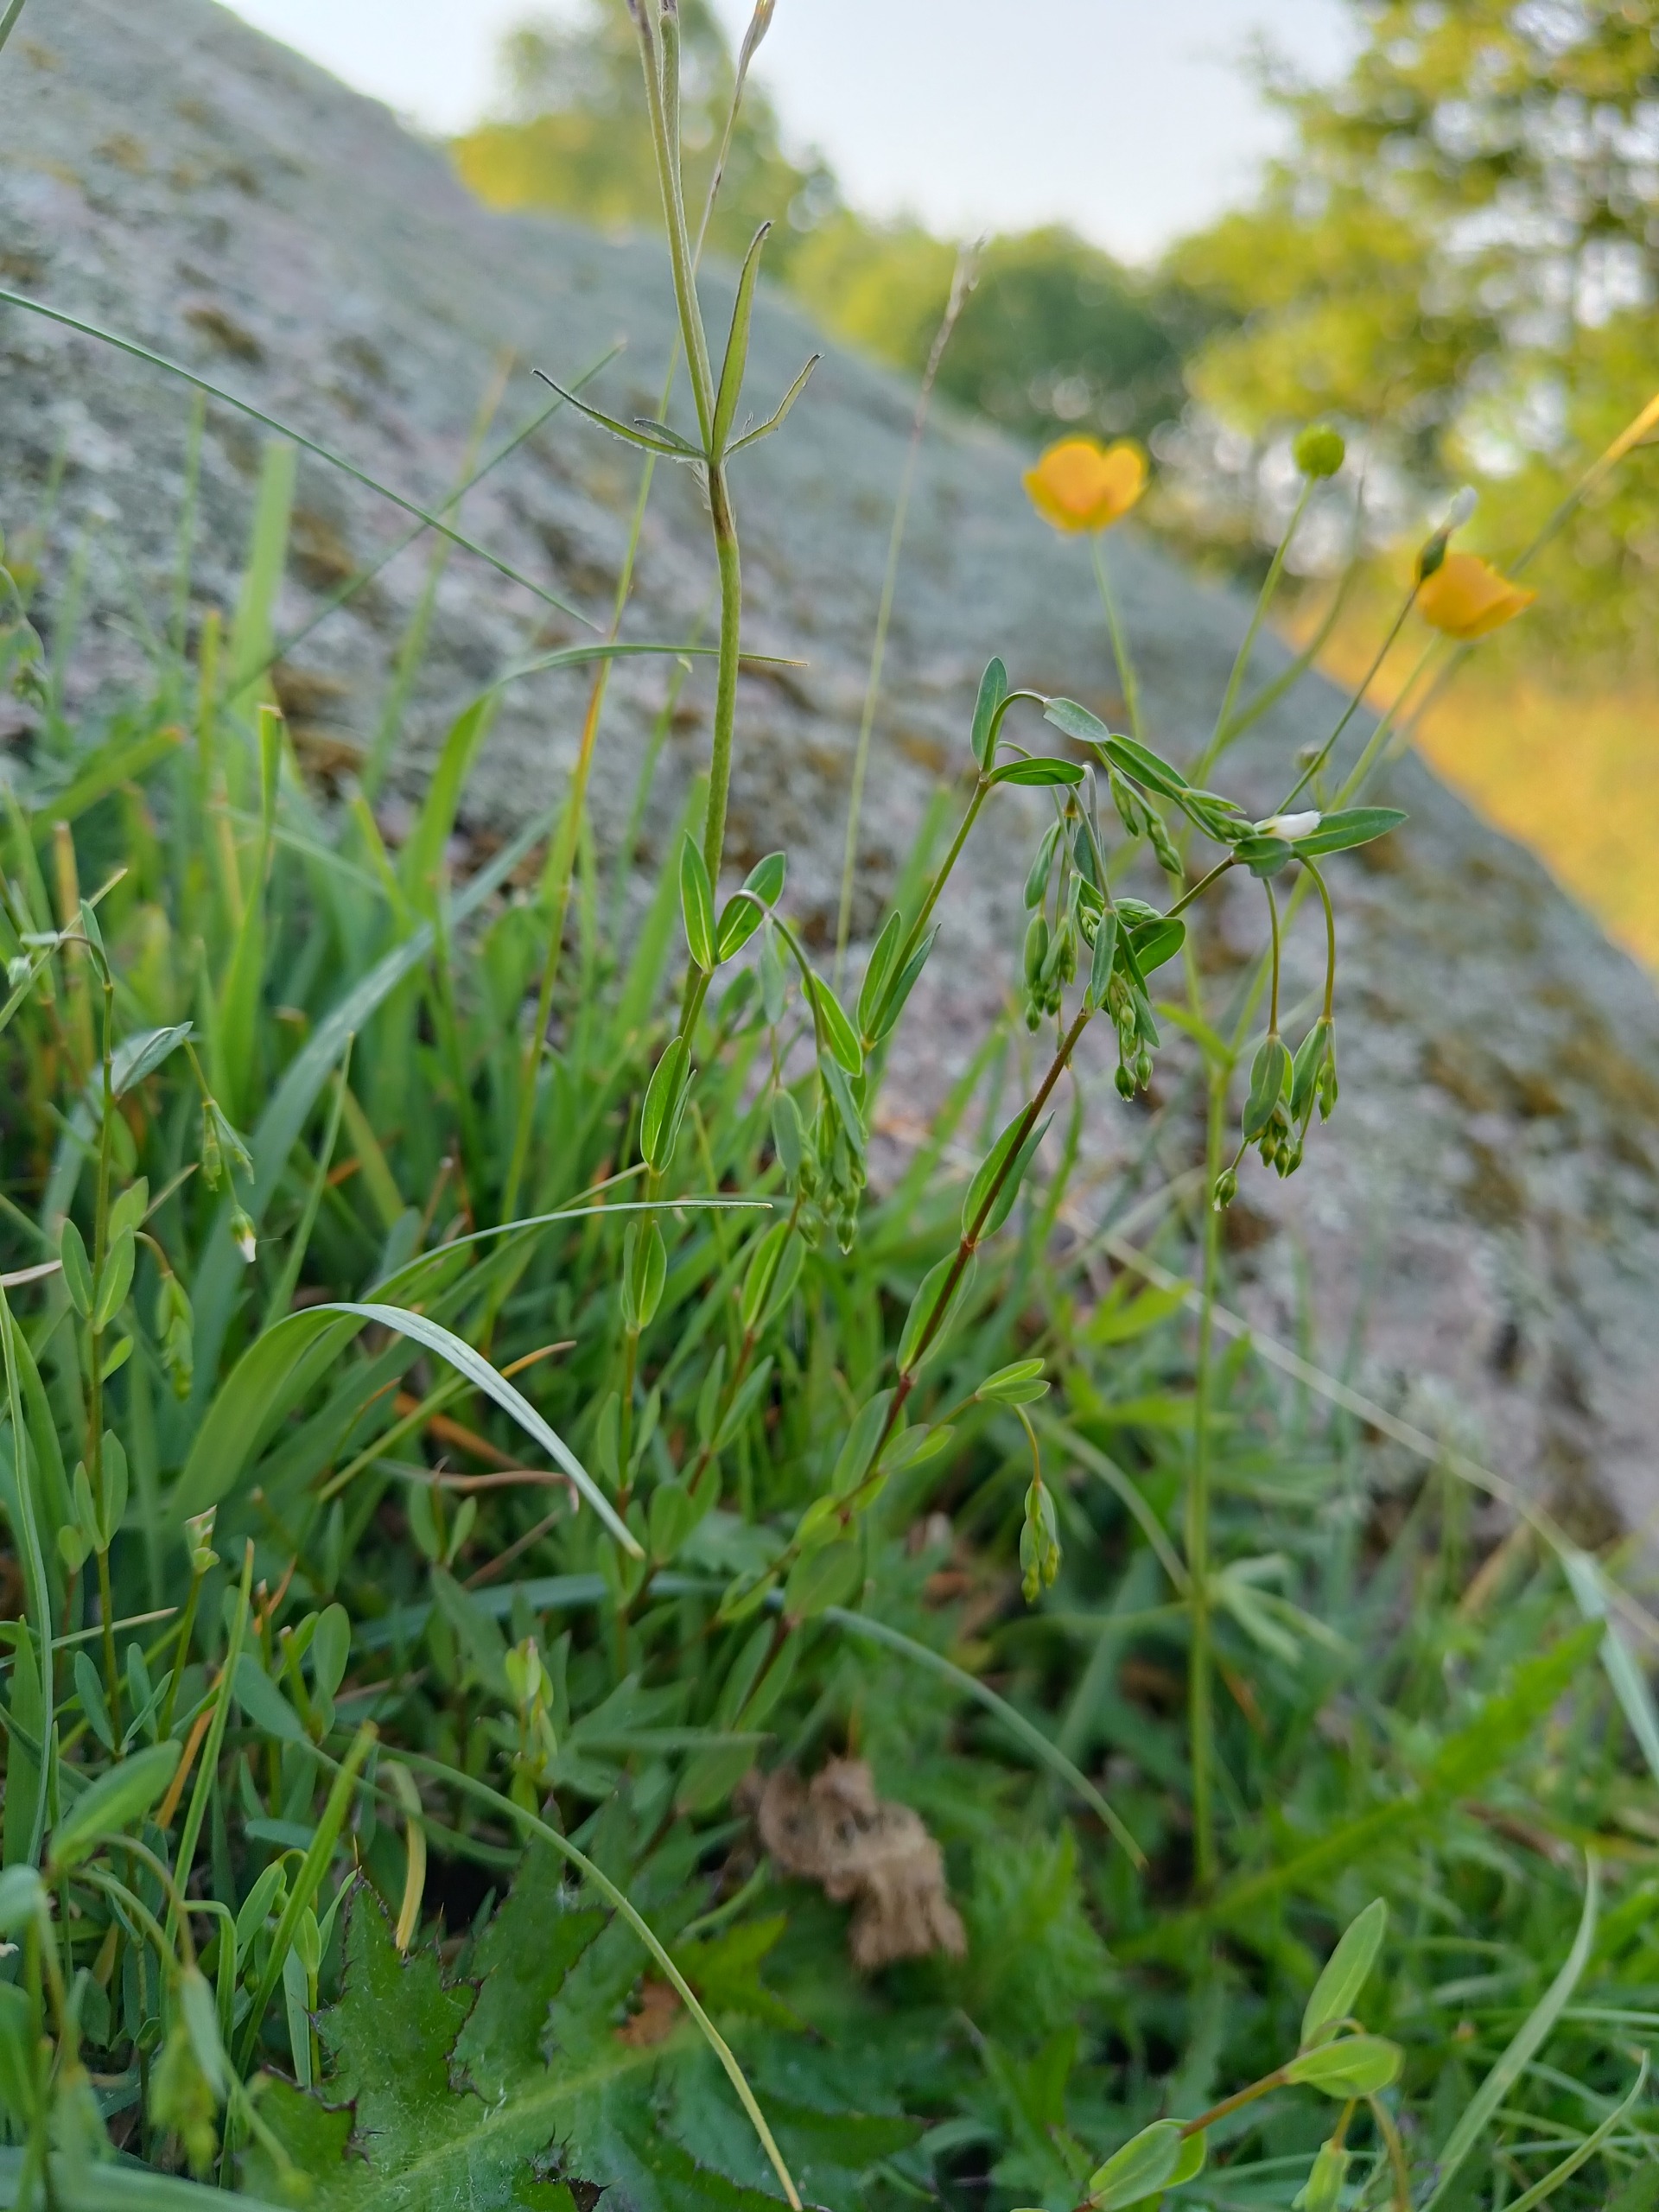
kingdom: Plantae
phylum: Tracheophyta
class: Magnoliopsida
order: Malpighiales
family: Linaceae
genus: Linum
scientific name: Linum catharticum
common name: Vild hør
